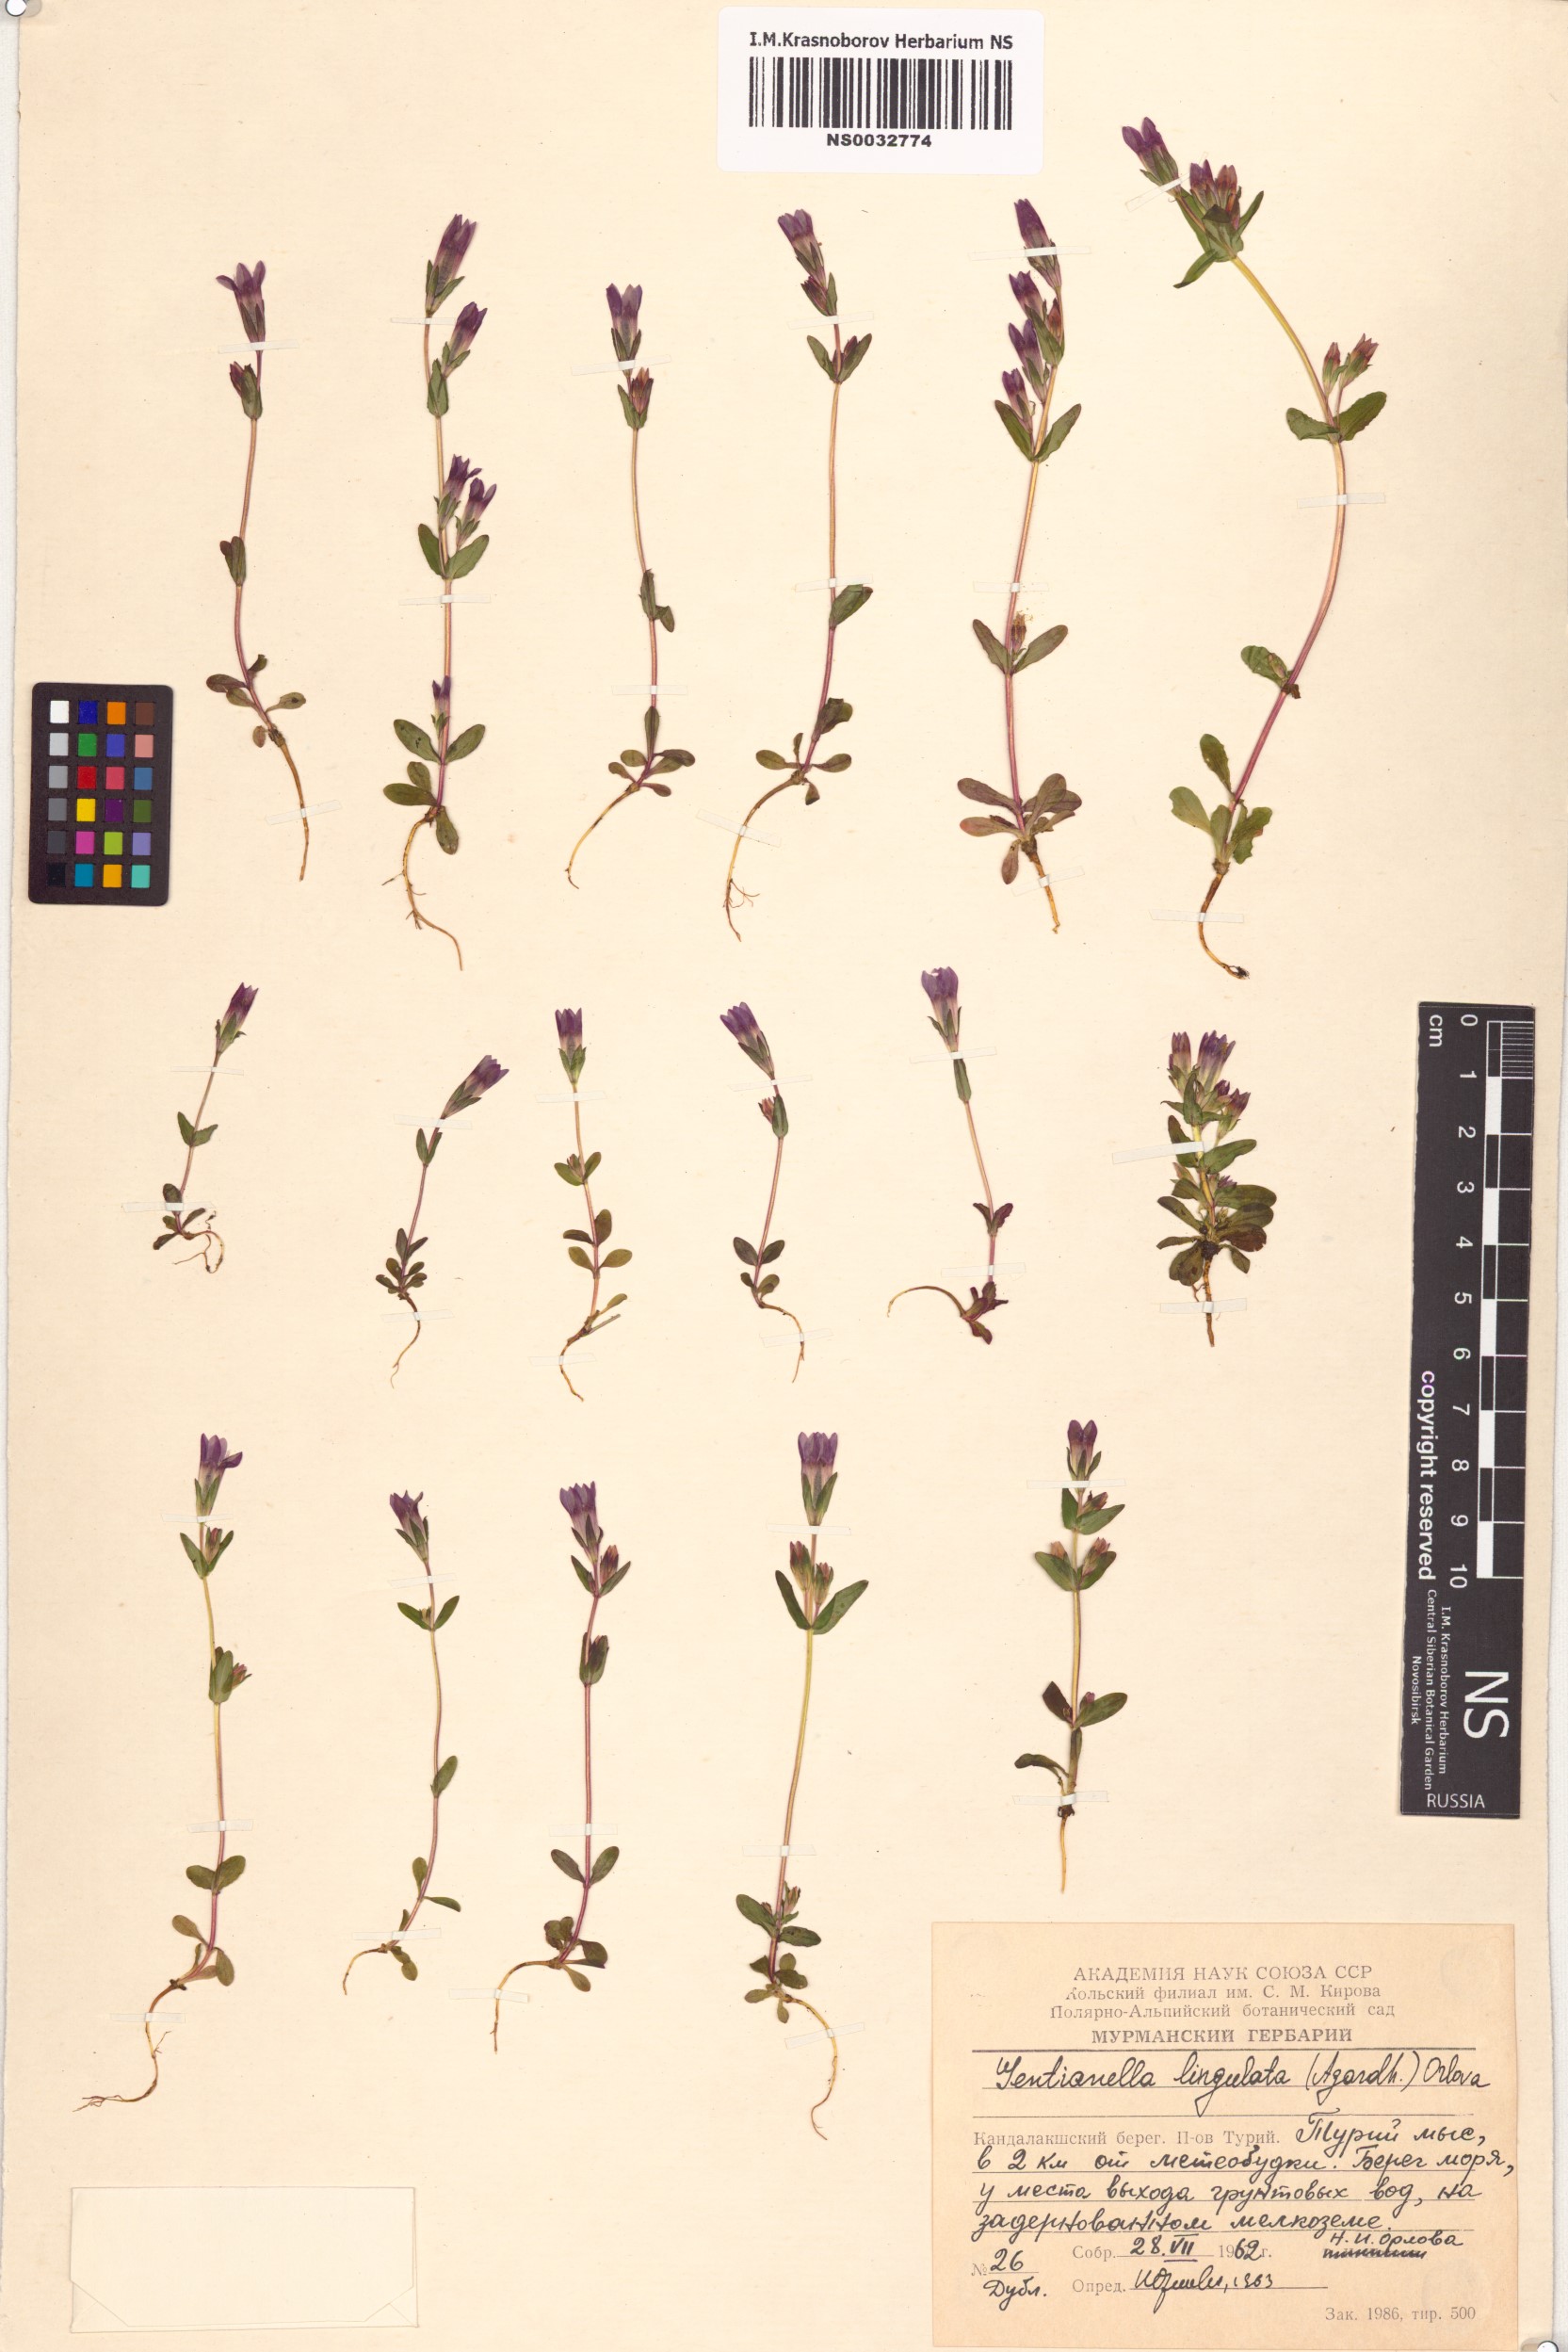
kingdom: Plantae
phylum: Tracheophyta
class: Magnoliopsida
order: Gentianales
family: Gentianaceae
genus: Gentianella
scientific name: Gentianella amarella
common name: Autumn gentian
